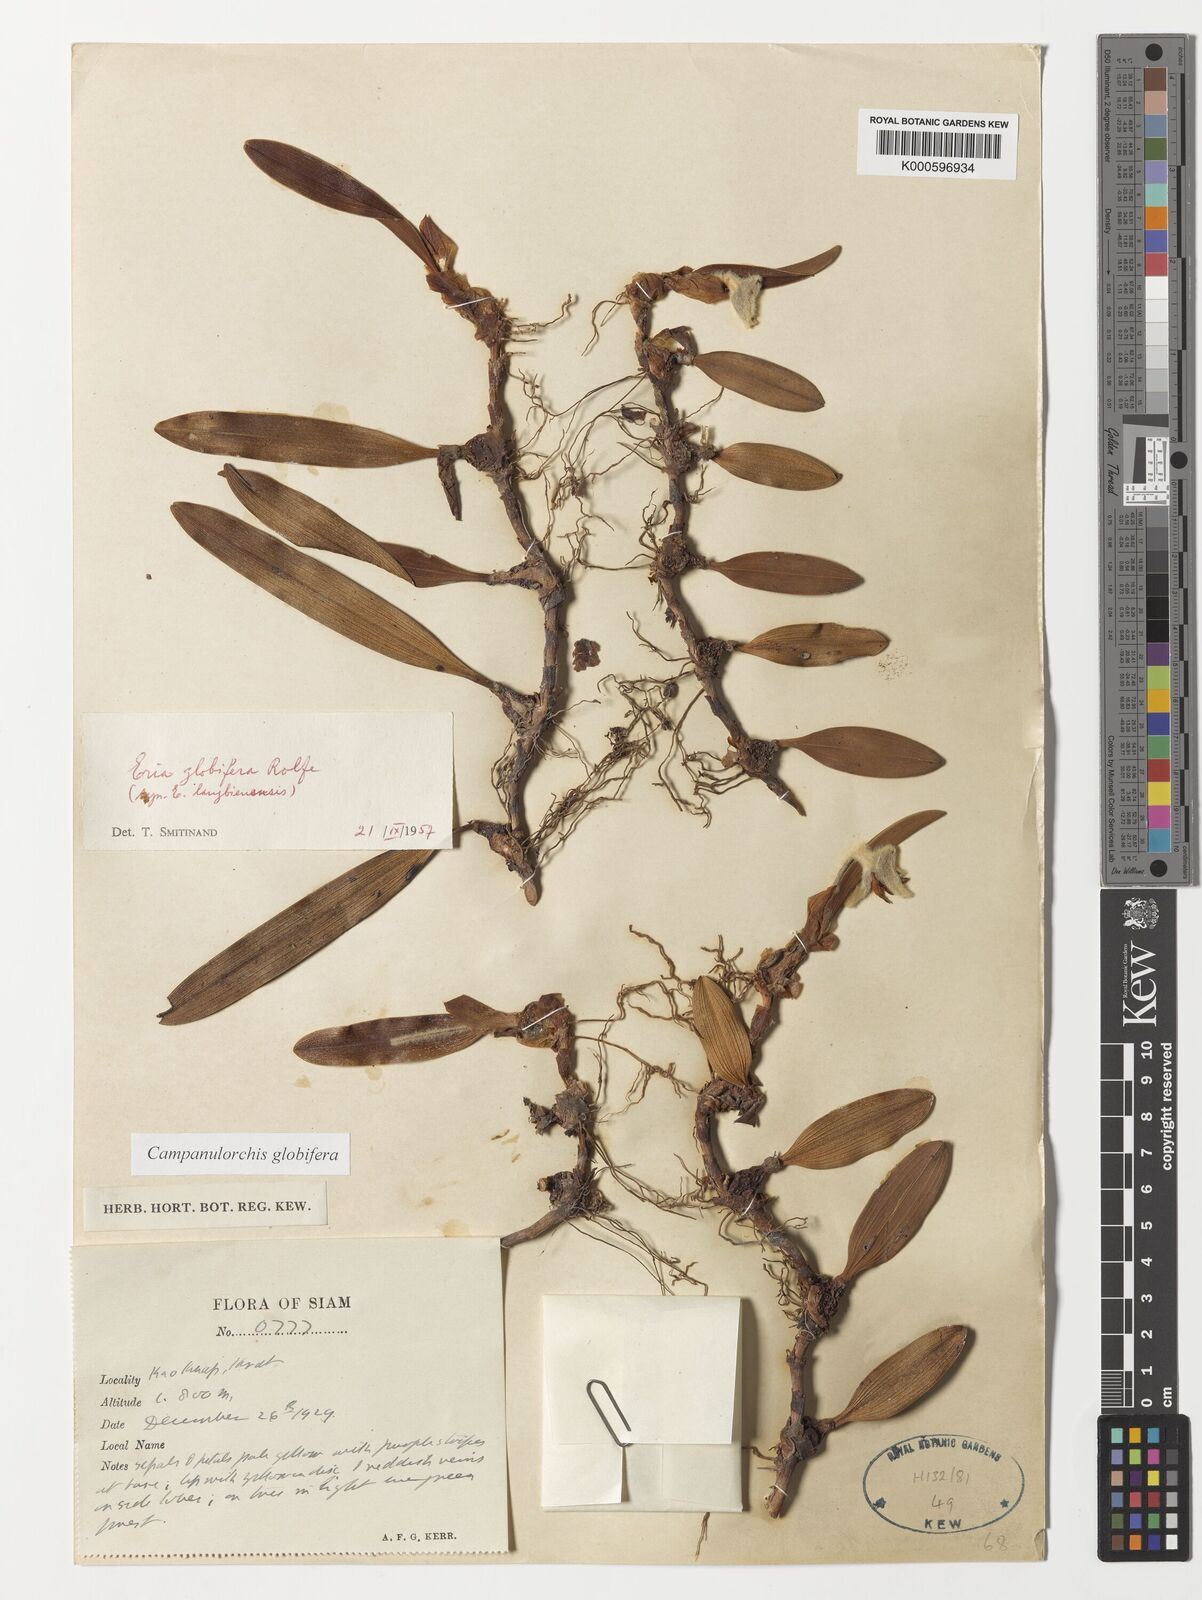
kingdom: Plantae
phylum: Tracheophyta
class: Liliopsida
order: Asparagales
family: Orchidaceae
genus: Campanulorchis
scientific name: Campanulorchis globifera
